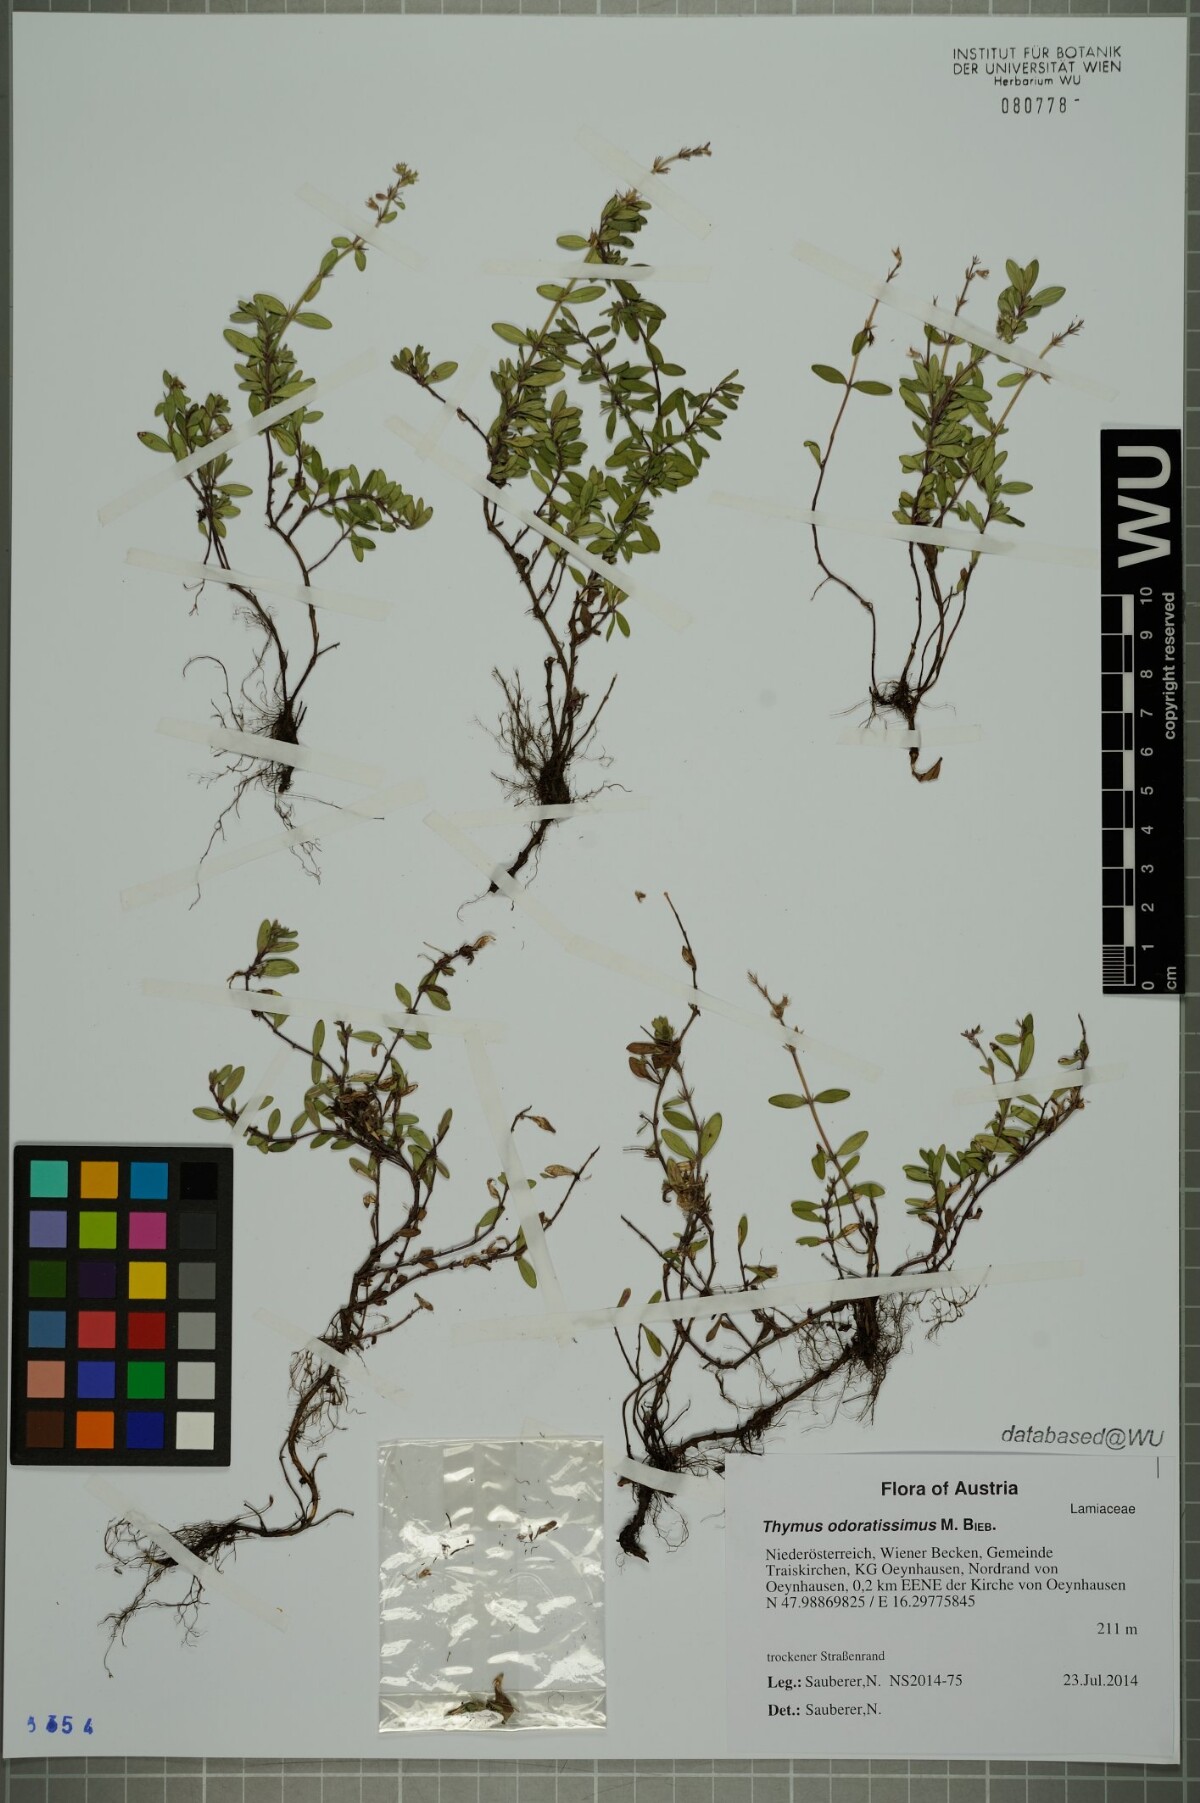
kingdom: Plantae
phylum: Tracheophyta
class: Magnoliopsida
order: Lamiales
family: Lamiaceae
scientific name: Lamiaceae
